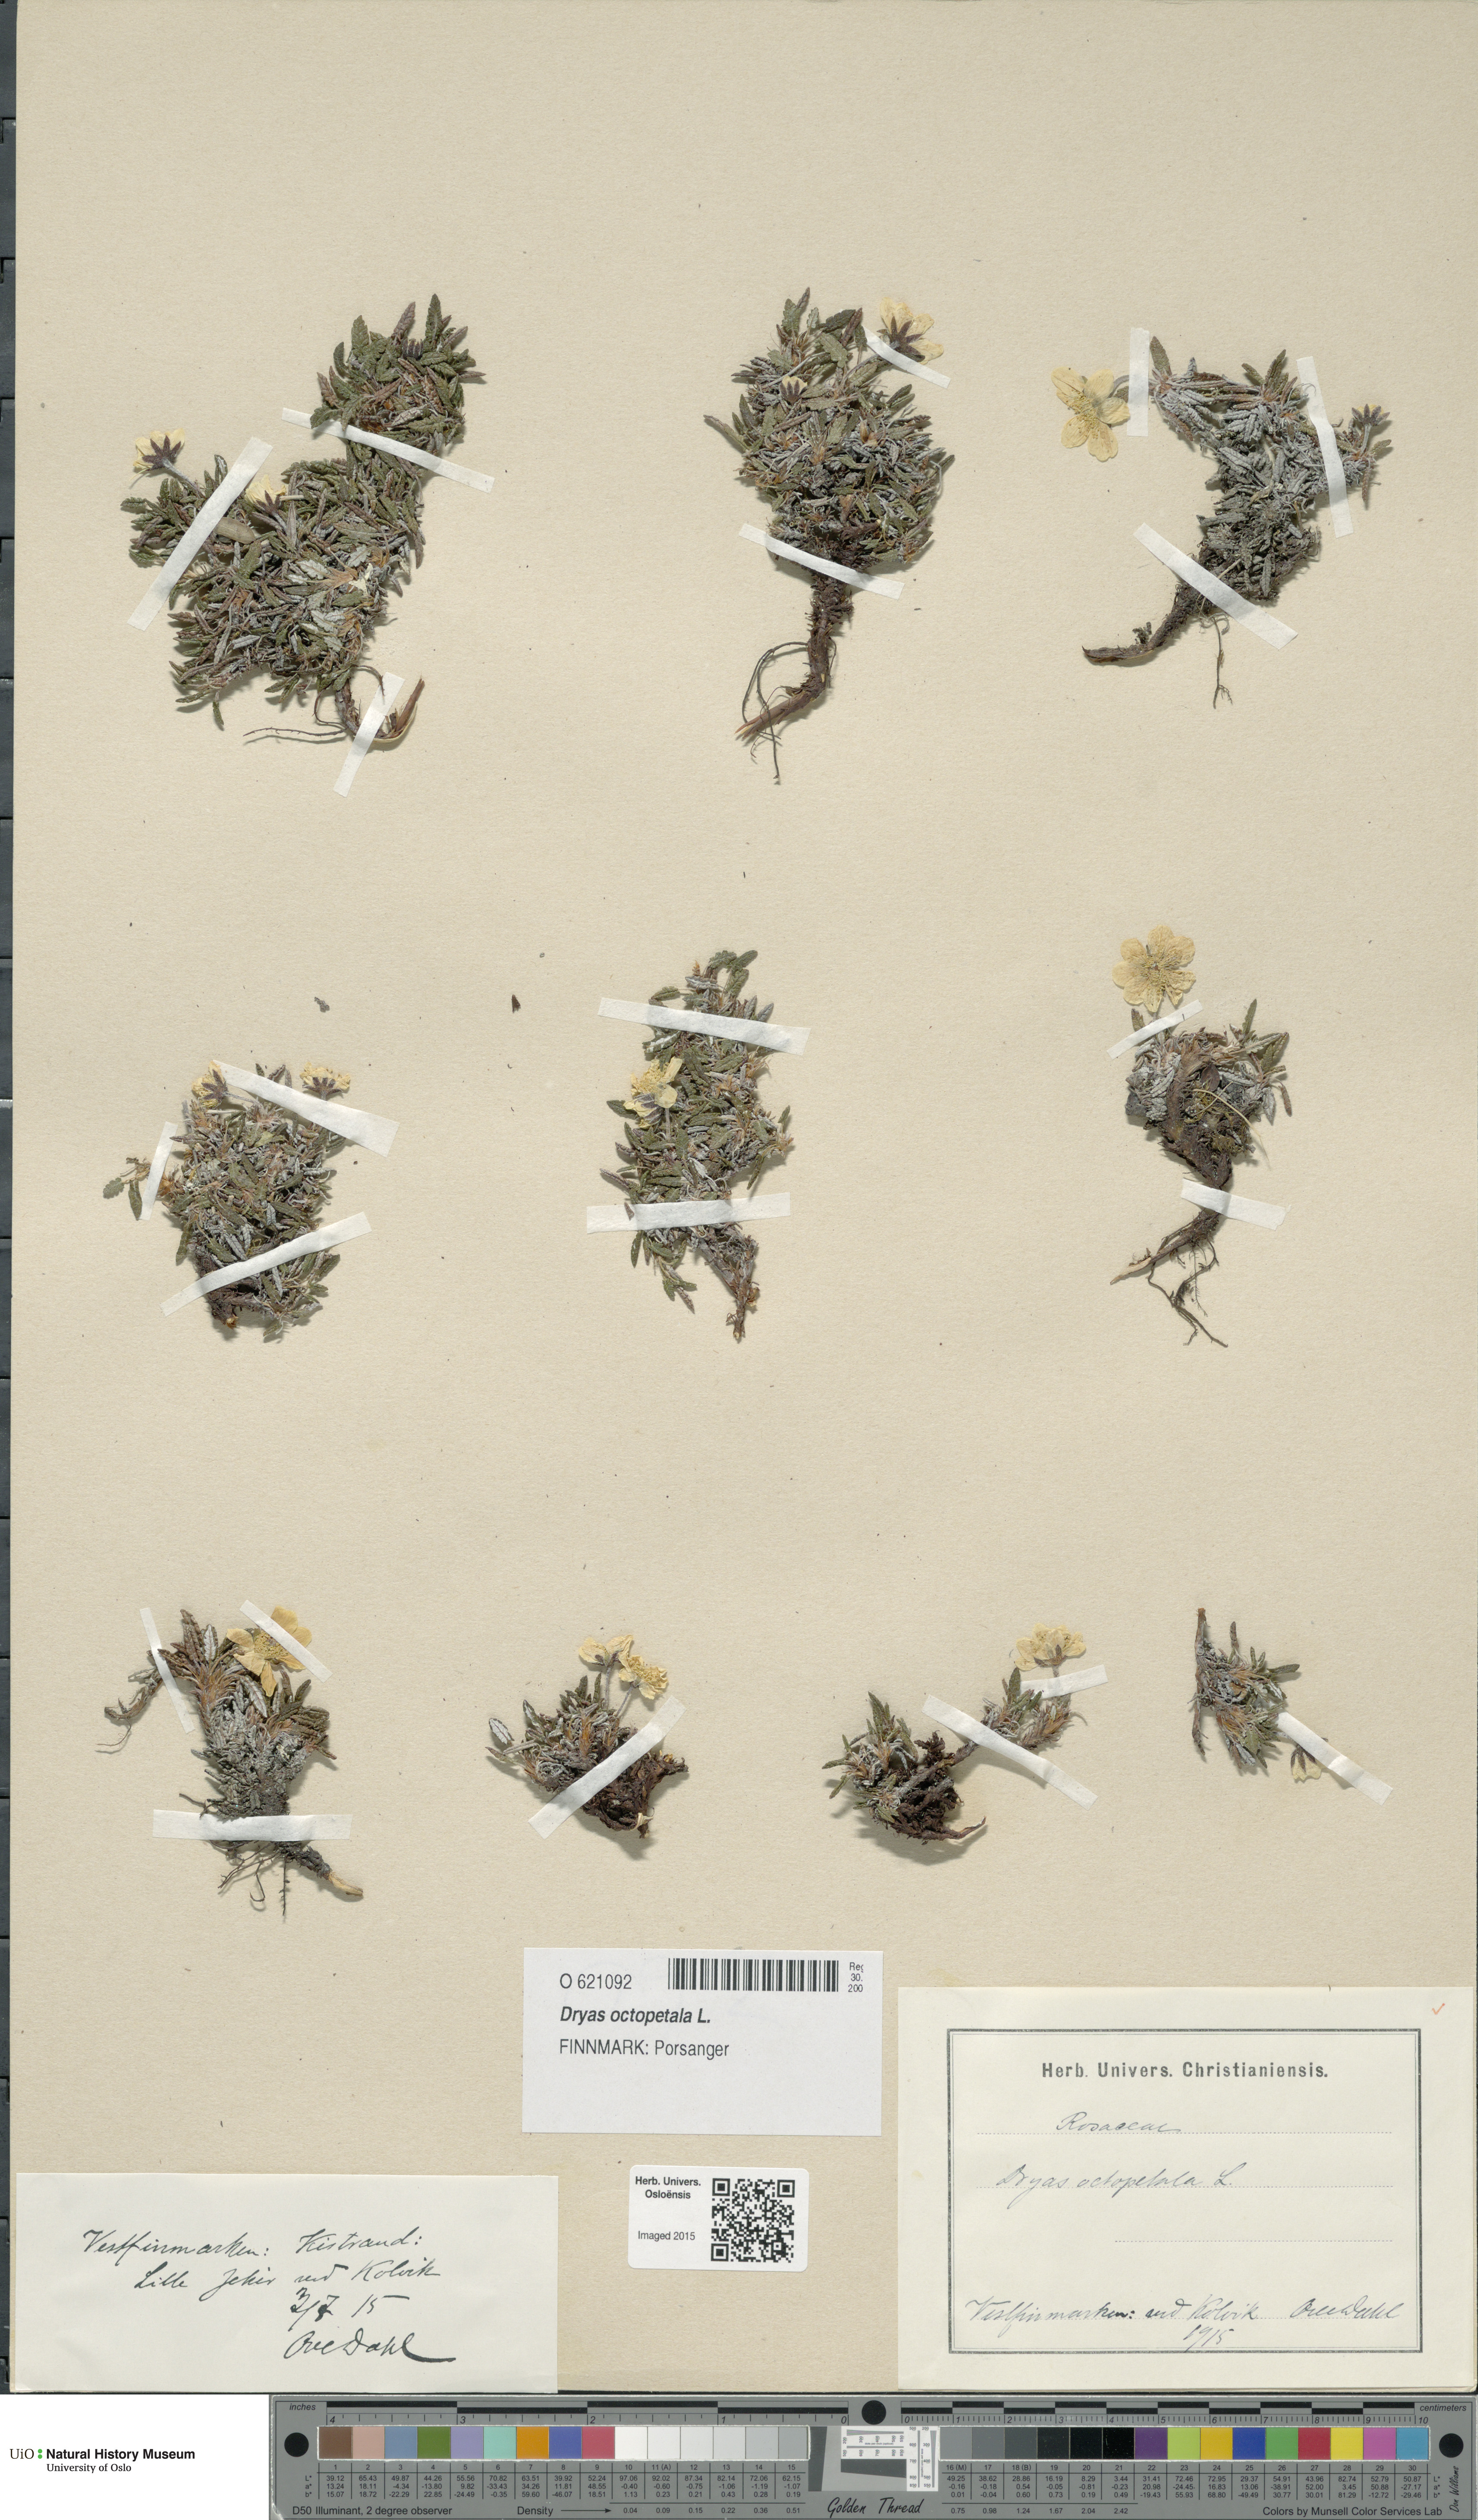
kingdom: Plantae
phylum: Tracheophyta
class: Magnoliopsida
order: Rosales
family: Rosaceae
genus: Dryas
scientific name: Dryas octopetala
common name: Eight-petal mountain-avens
